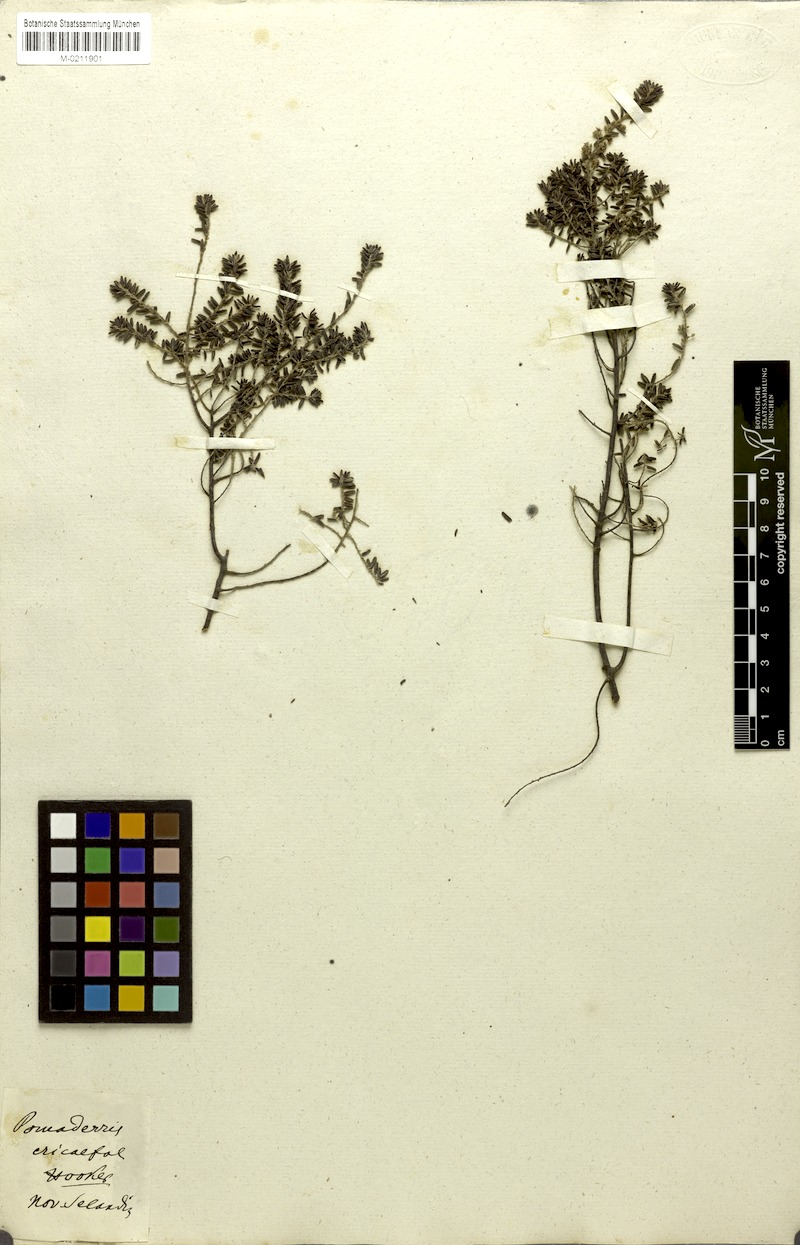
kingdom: Plantae
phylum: Tracheophyta
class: Magnoliopsida
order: Rosales
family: Rhamnaceae
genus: Pomaderris
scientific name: Pomaderris phylicifolia
